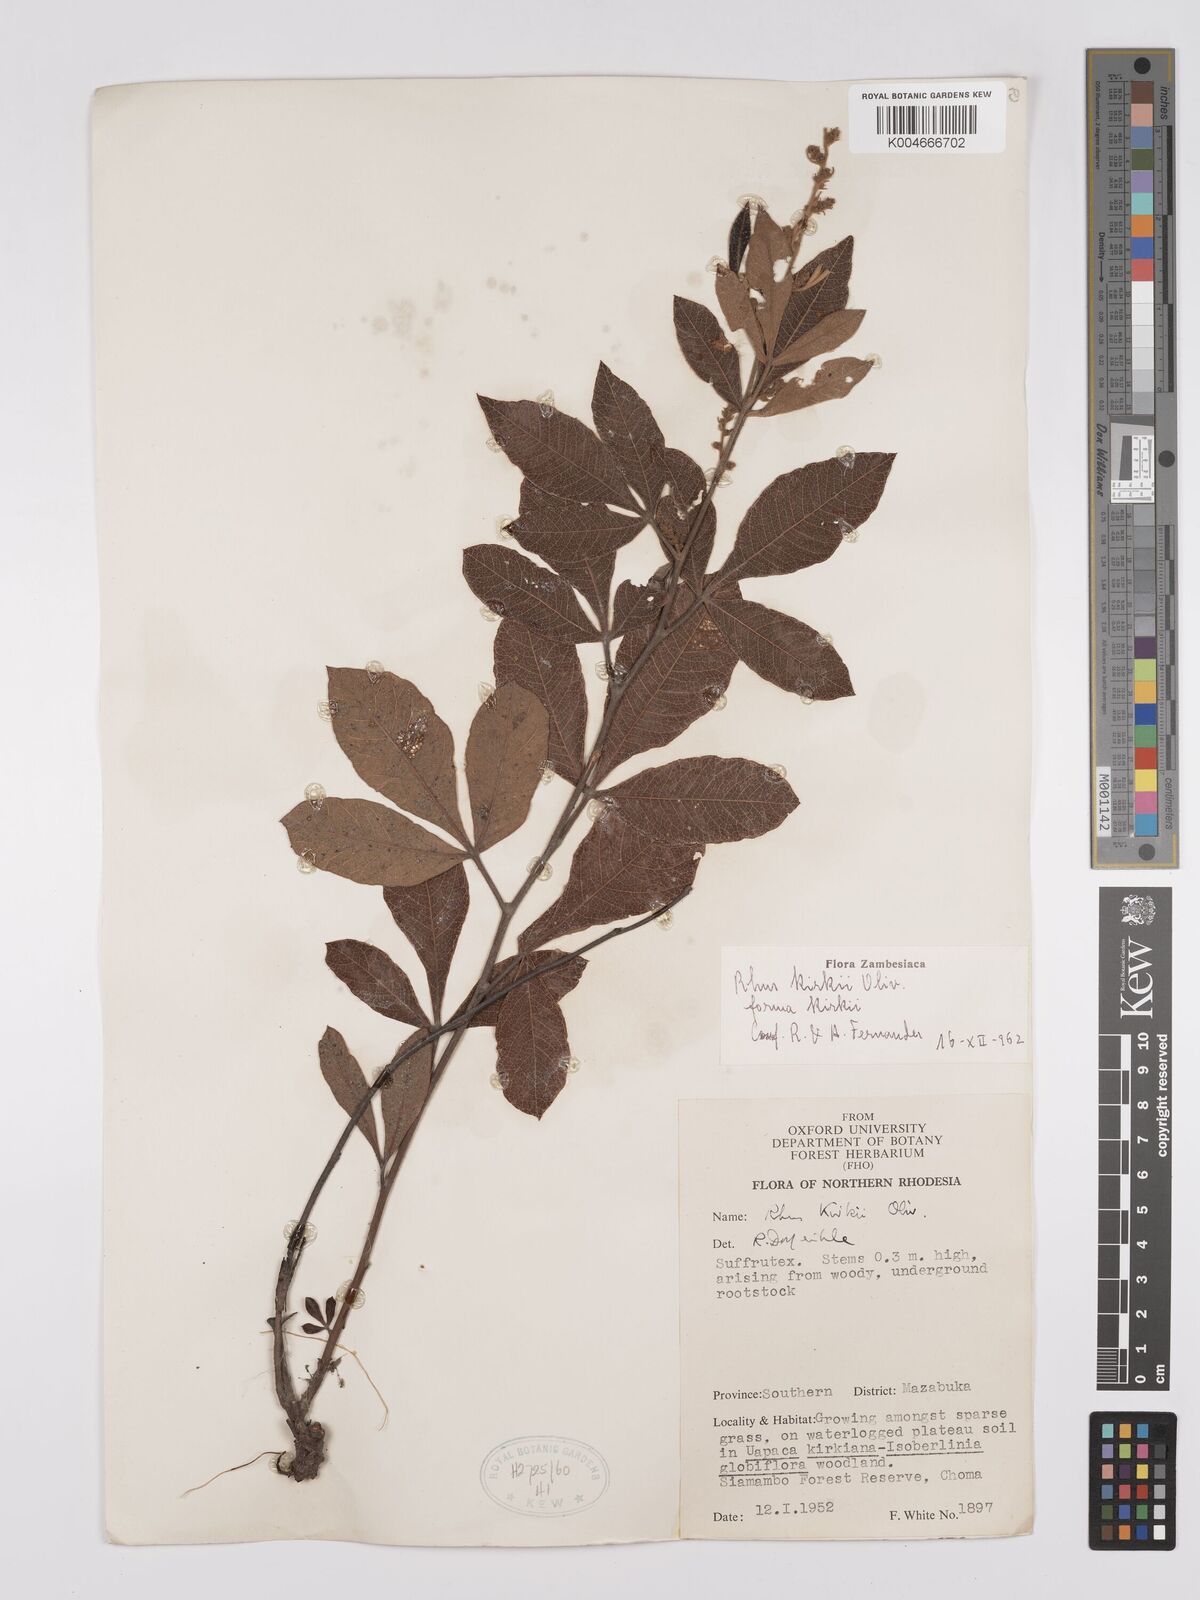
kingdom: Plantae
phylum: Tracheophyta
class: Magnoliopsida
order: Sapindales
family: Anacardiaceae
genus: Searsia
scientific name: Searsia kirkii
